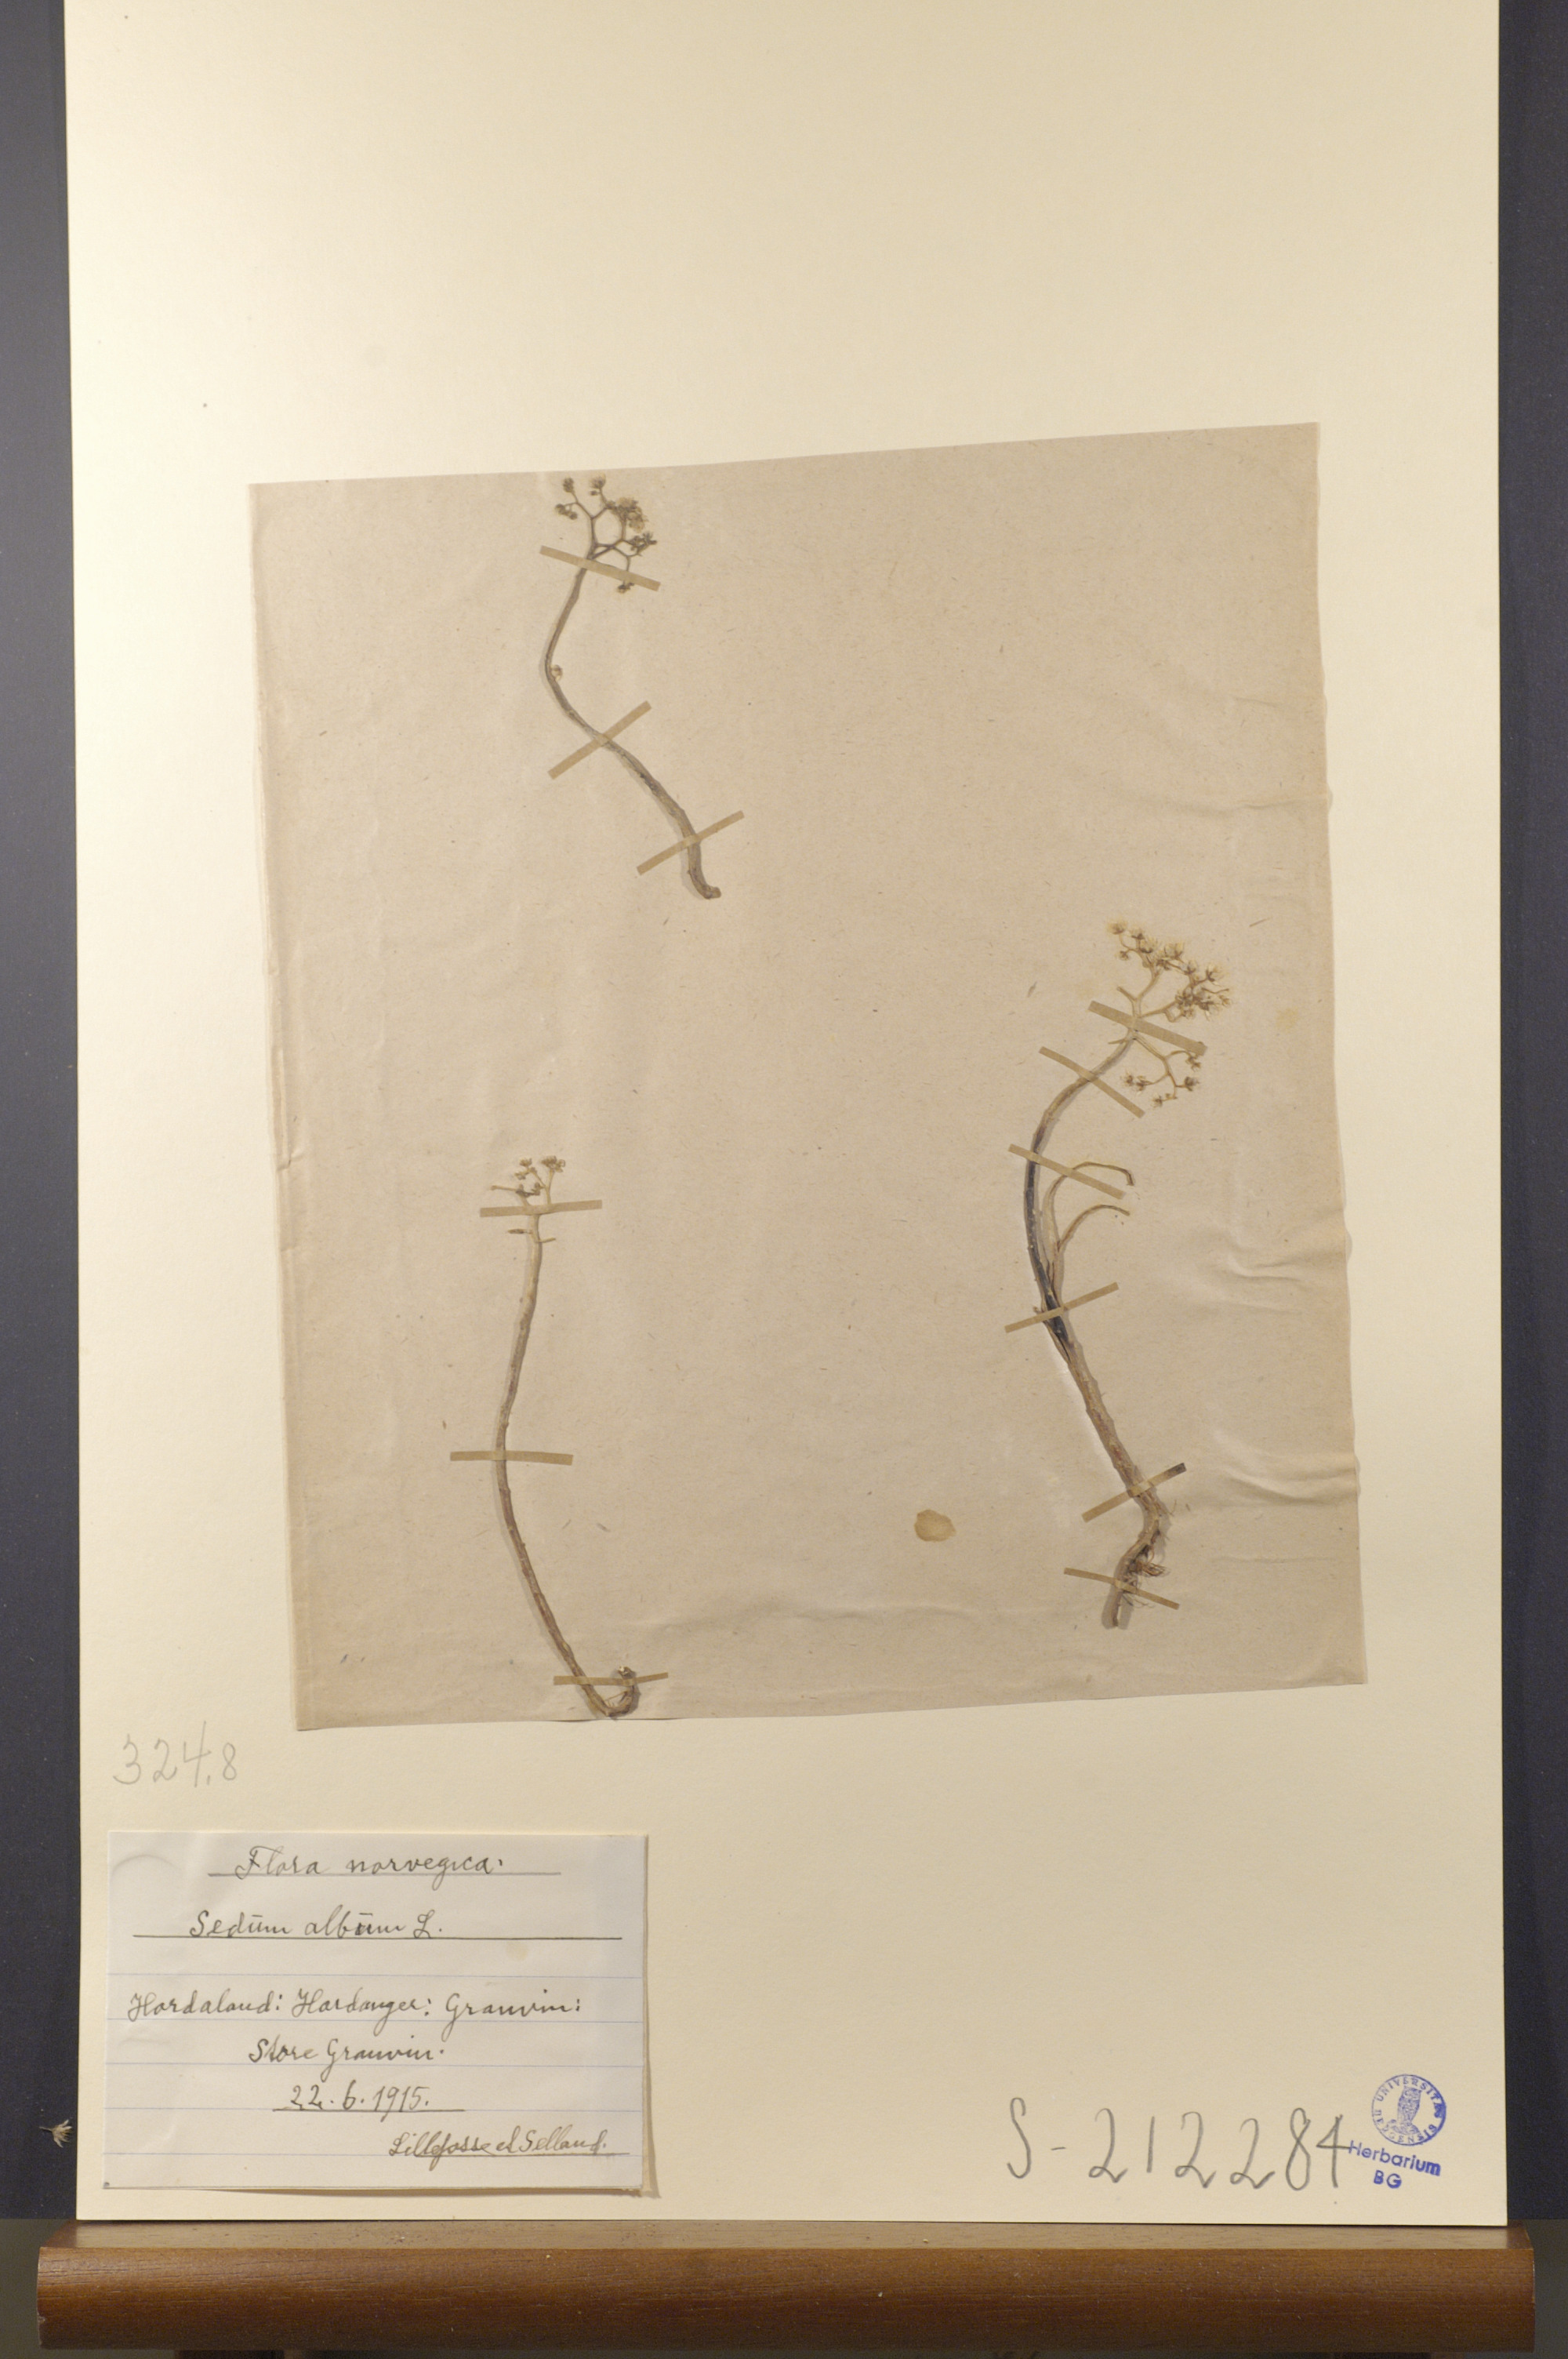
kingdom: Plantae
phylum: Tracheophyta
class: Magnoliopsida
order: Saxifragales
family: Crassulaceae
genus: Sedum
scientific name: Sedum album
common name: White stonecrop
